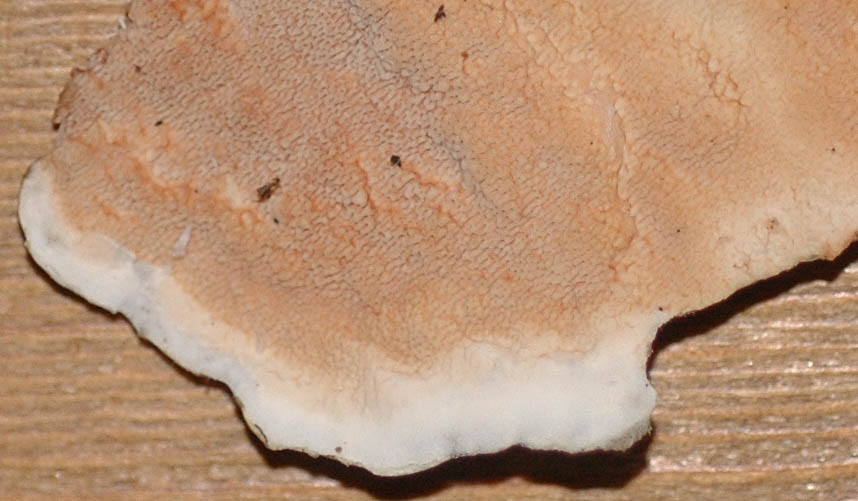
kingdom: Fungi
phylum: Basidiomycota
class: Agaricomycetes
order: Polyporales
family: Irpicaceae
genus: Crystallicutis
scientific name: Crystallicutis serpens
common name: gråviolet barkhinde
